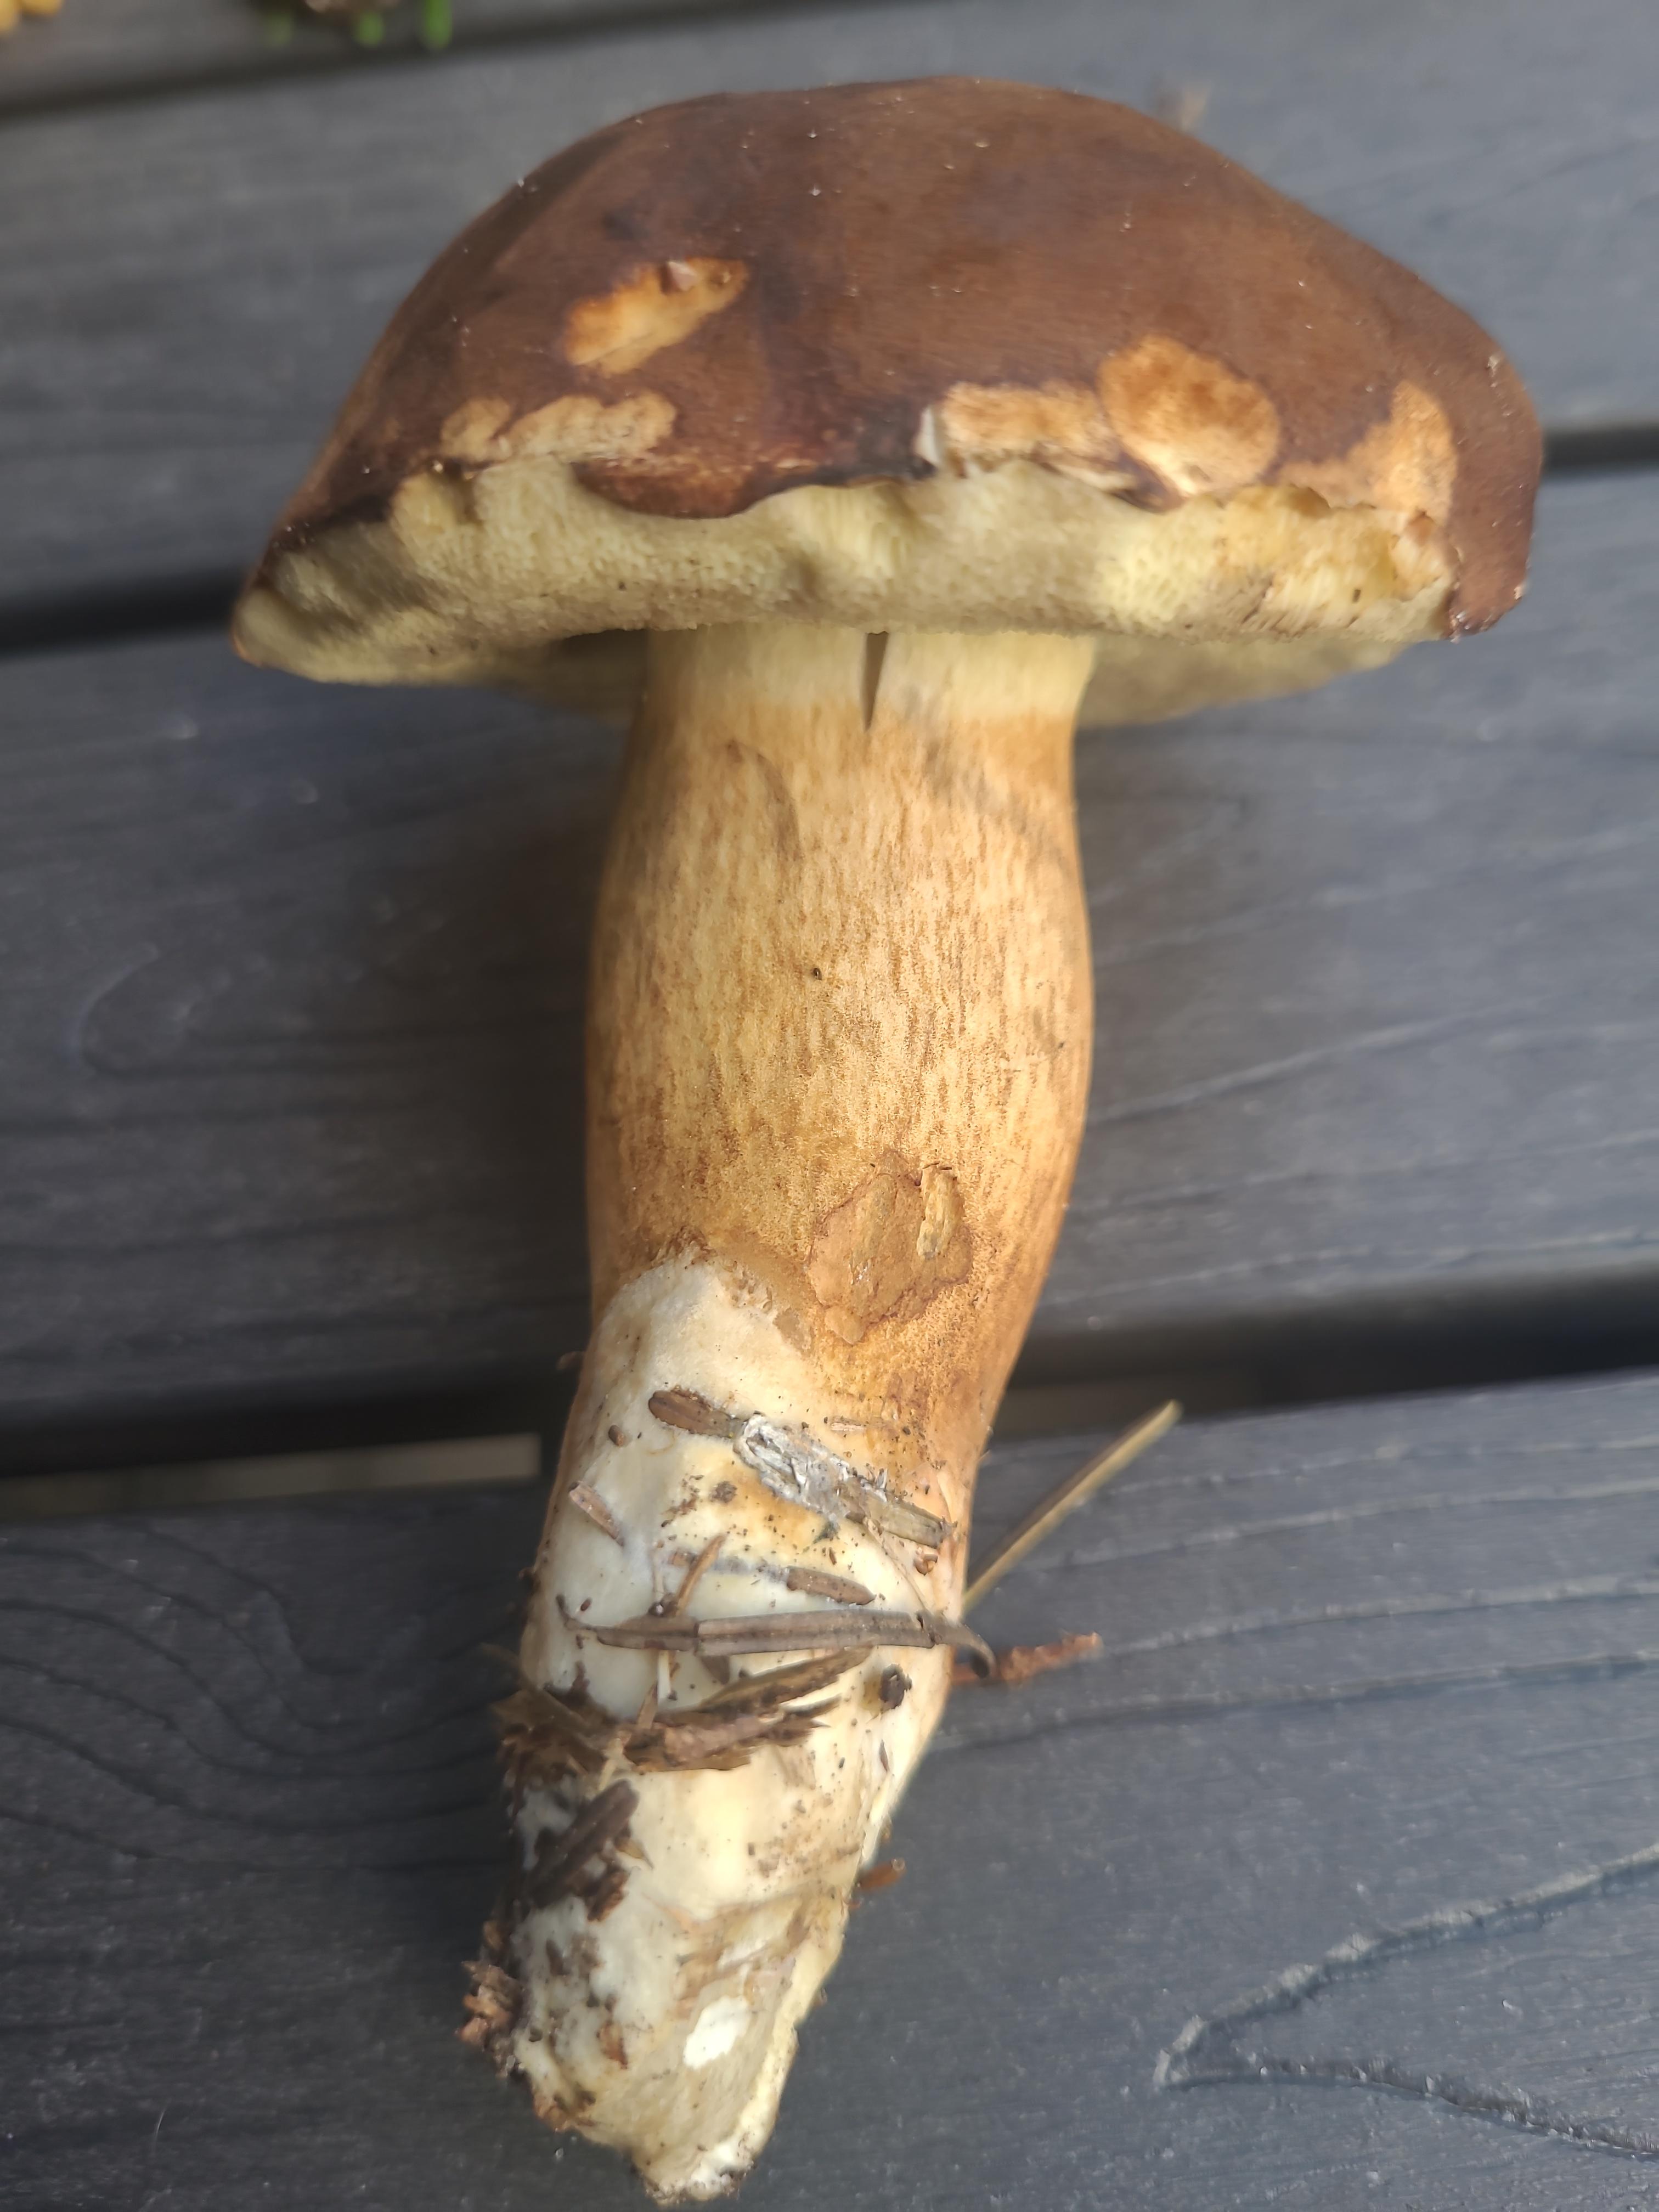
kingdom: Fungi
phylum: Basidiomycota
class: Agaricomycetes
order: Boletales
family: Boletaceae
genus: Imleria
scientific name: Imleria badia
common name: brunstokket rørhat
